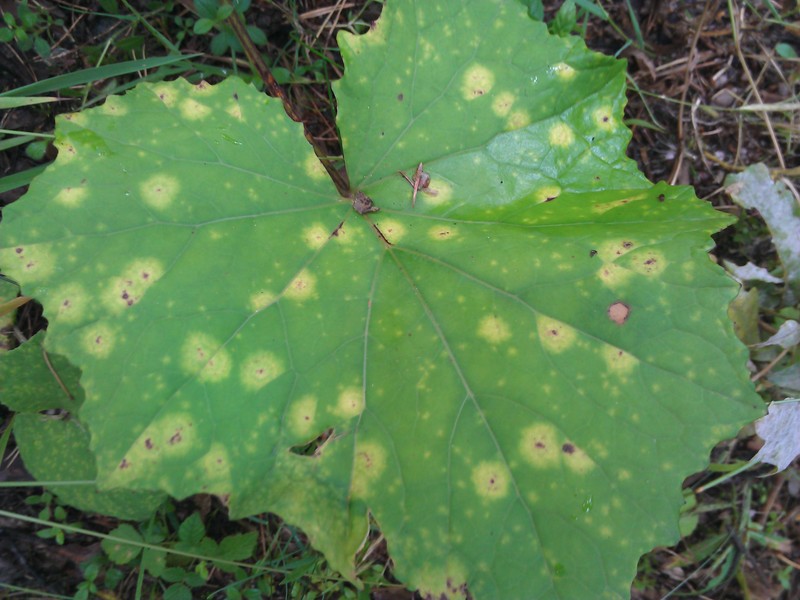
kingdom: Plantae
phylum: Tracheophyta
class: Magnoliopsida
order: Asterales
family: Asteraceae
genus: Tussilago
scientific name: Tussilago farfara
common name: Coltsfoot
